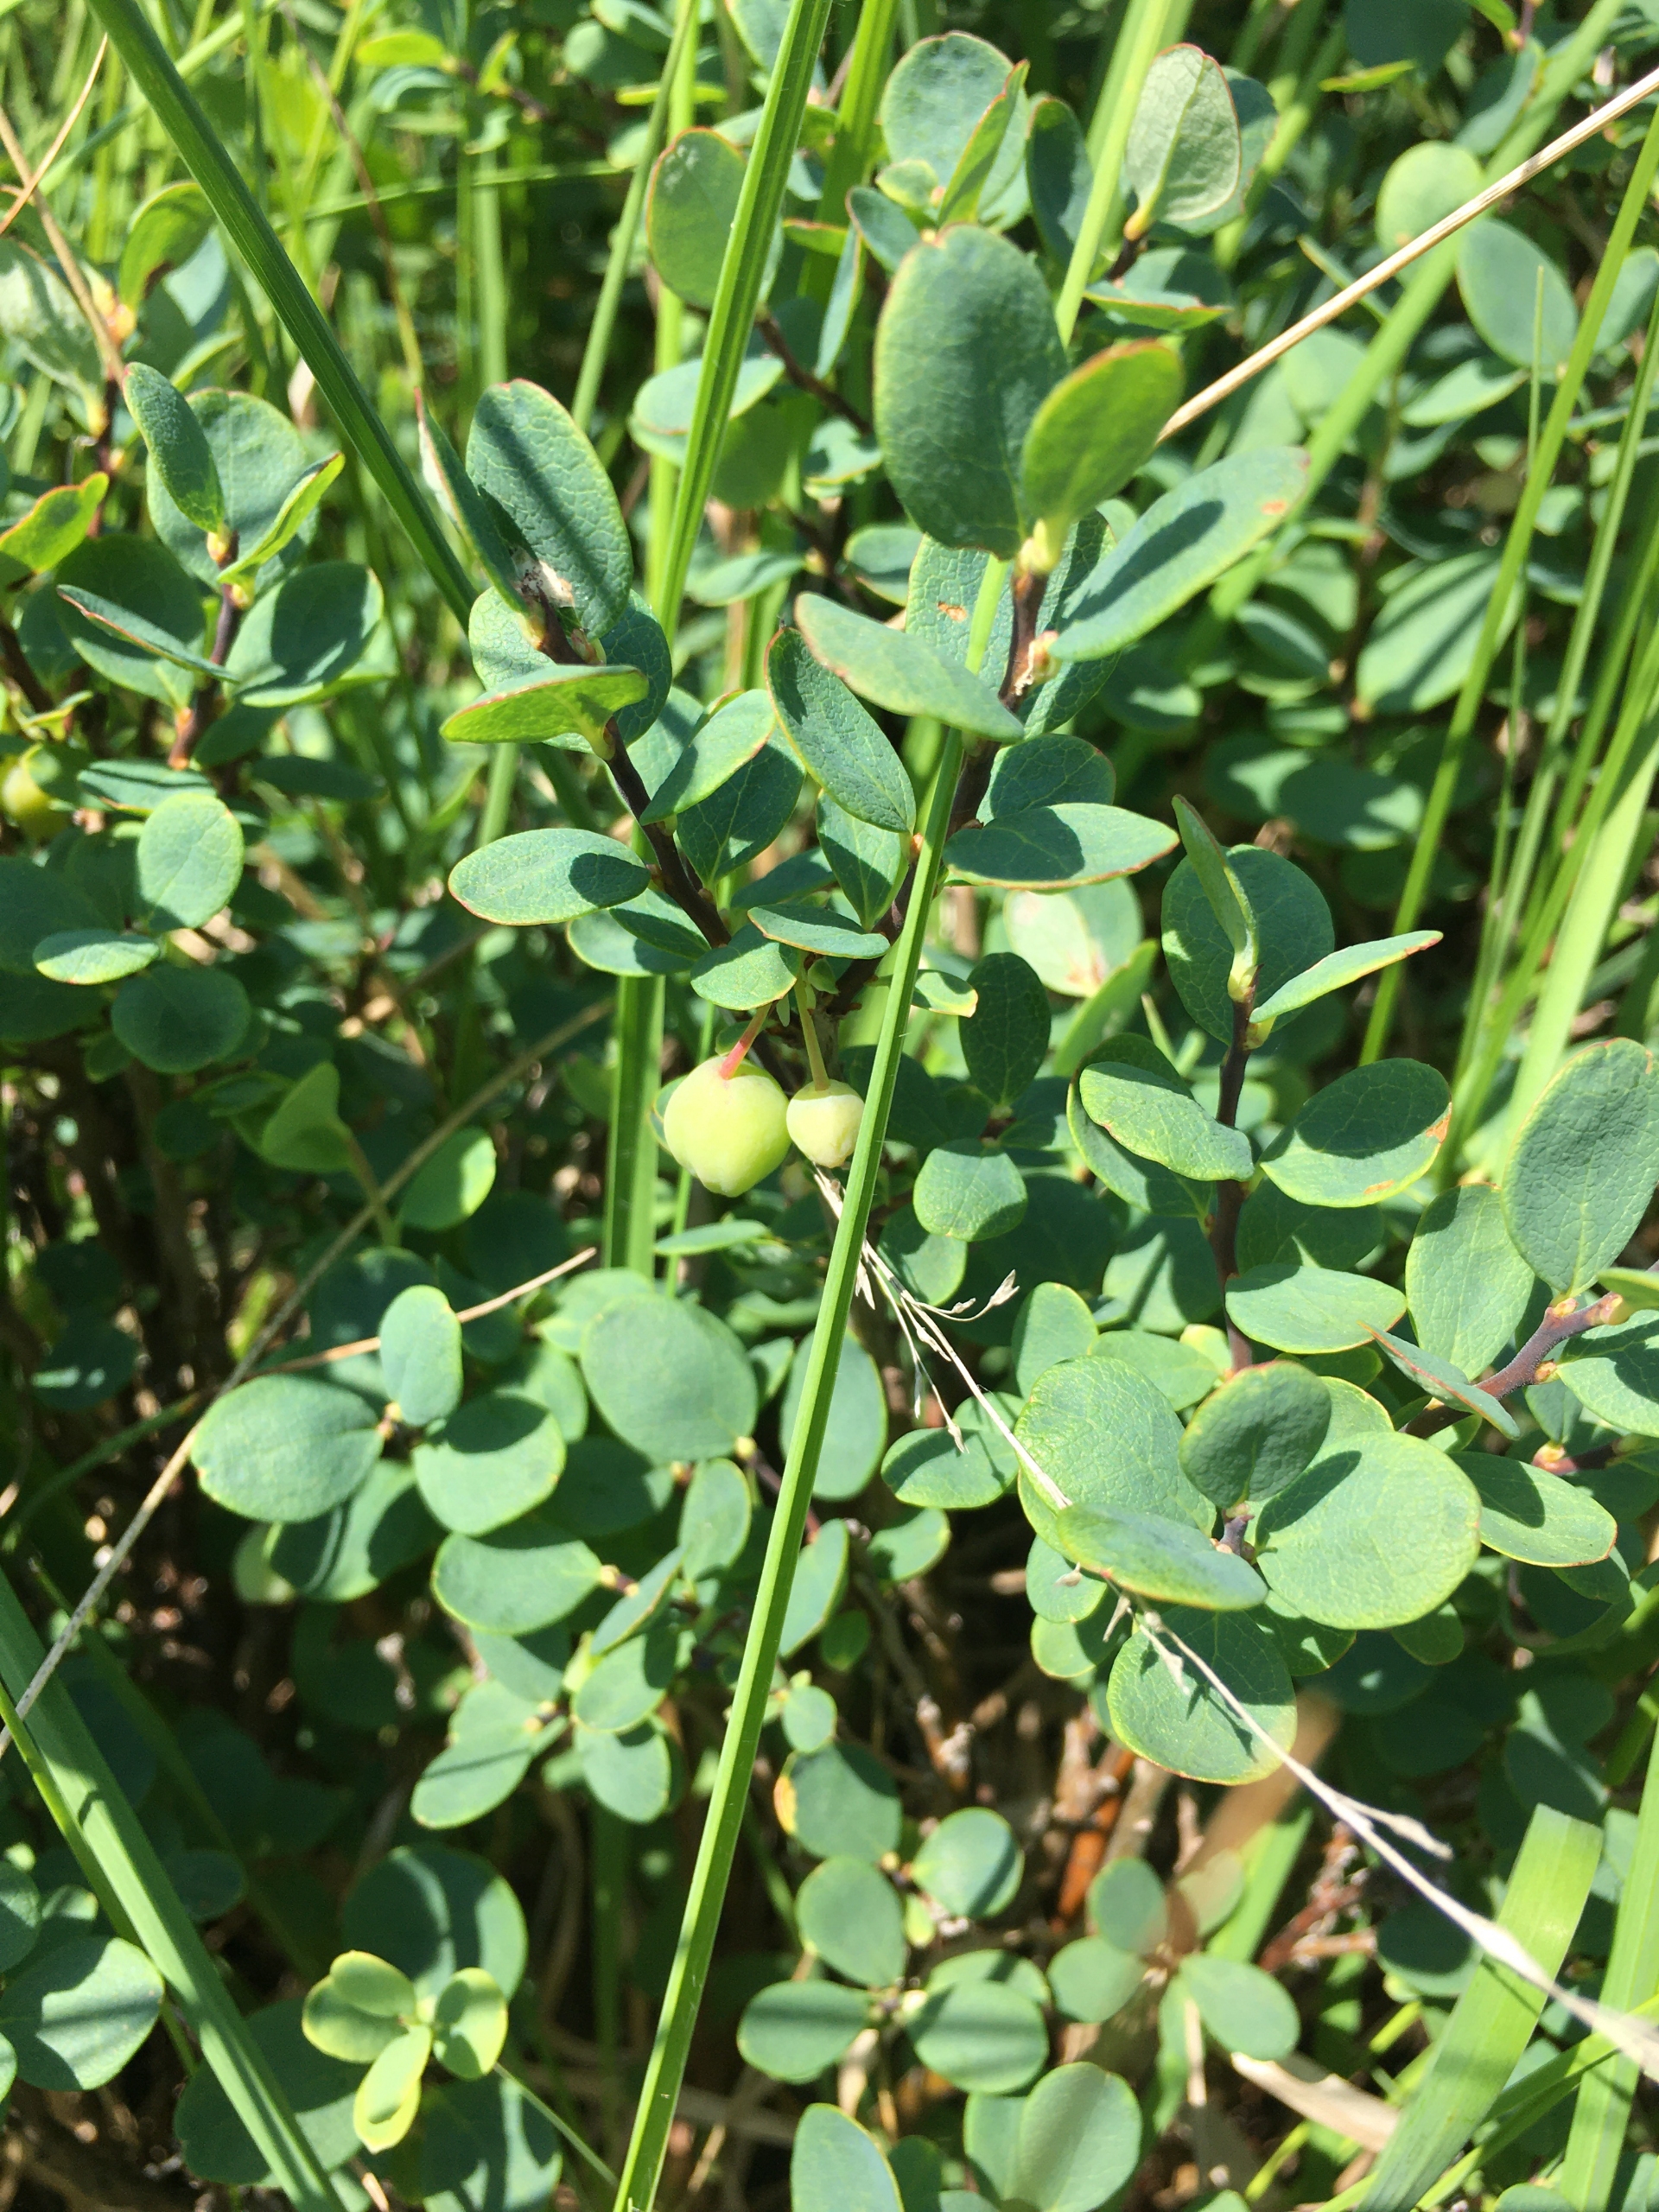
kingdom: Plantae
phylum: Tracheophyta
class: Magnoliopsida
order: Ericales
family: Ericaceae
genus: Vaccinium
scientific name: Vaccinium uliginosum
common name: Mose-bølle
